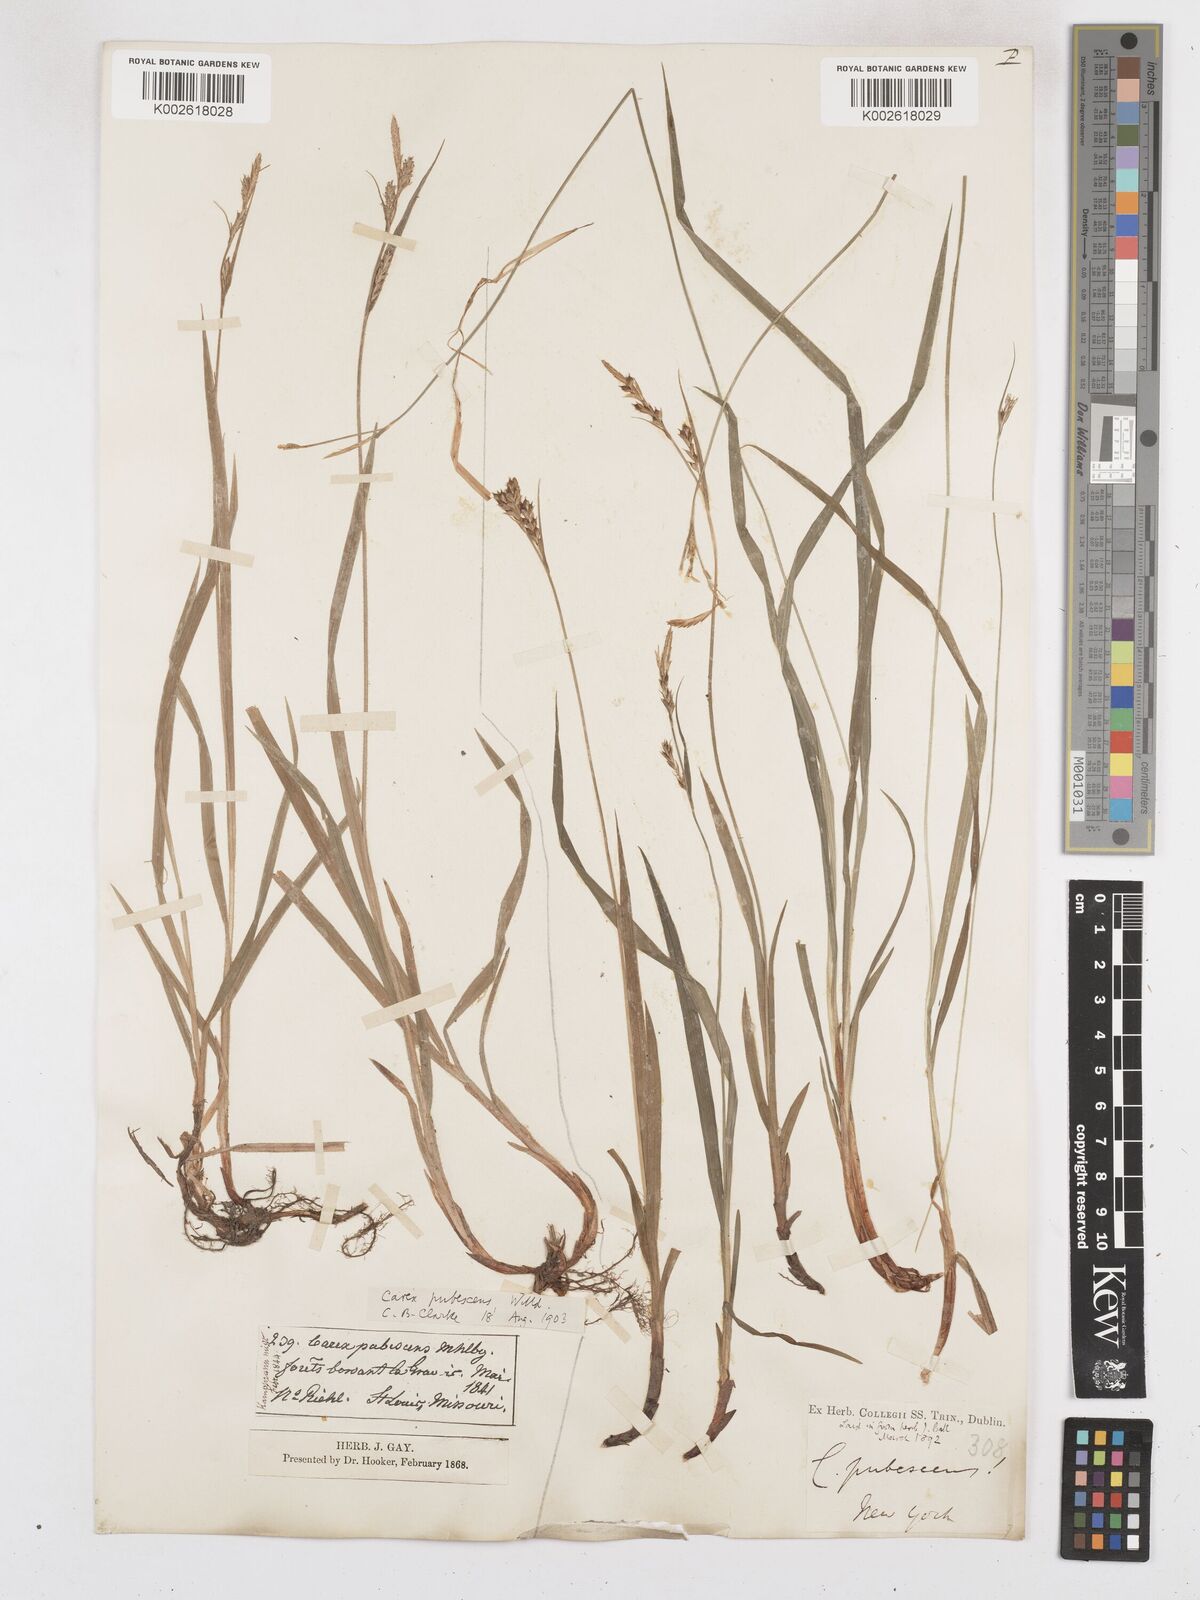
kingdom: Plantae
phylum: Tracheophyta
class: Liliopsida
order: Poales
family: Cyperaceae
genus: Carex
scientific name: Carex hirtifolia
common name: Hairy sedge
